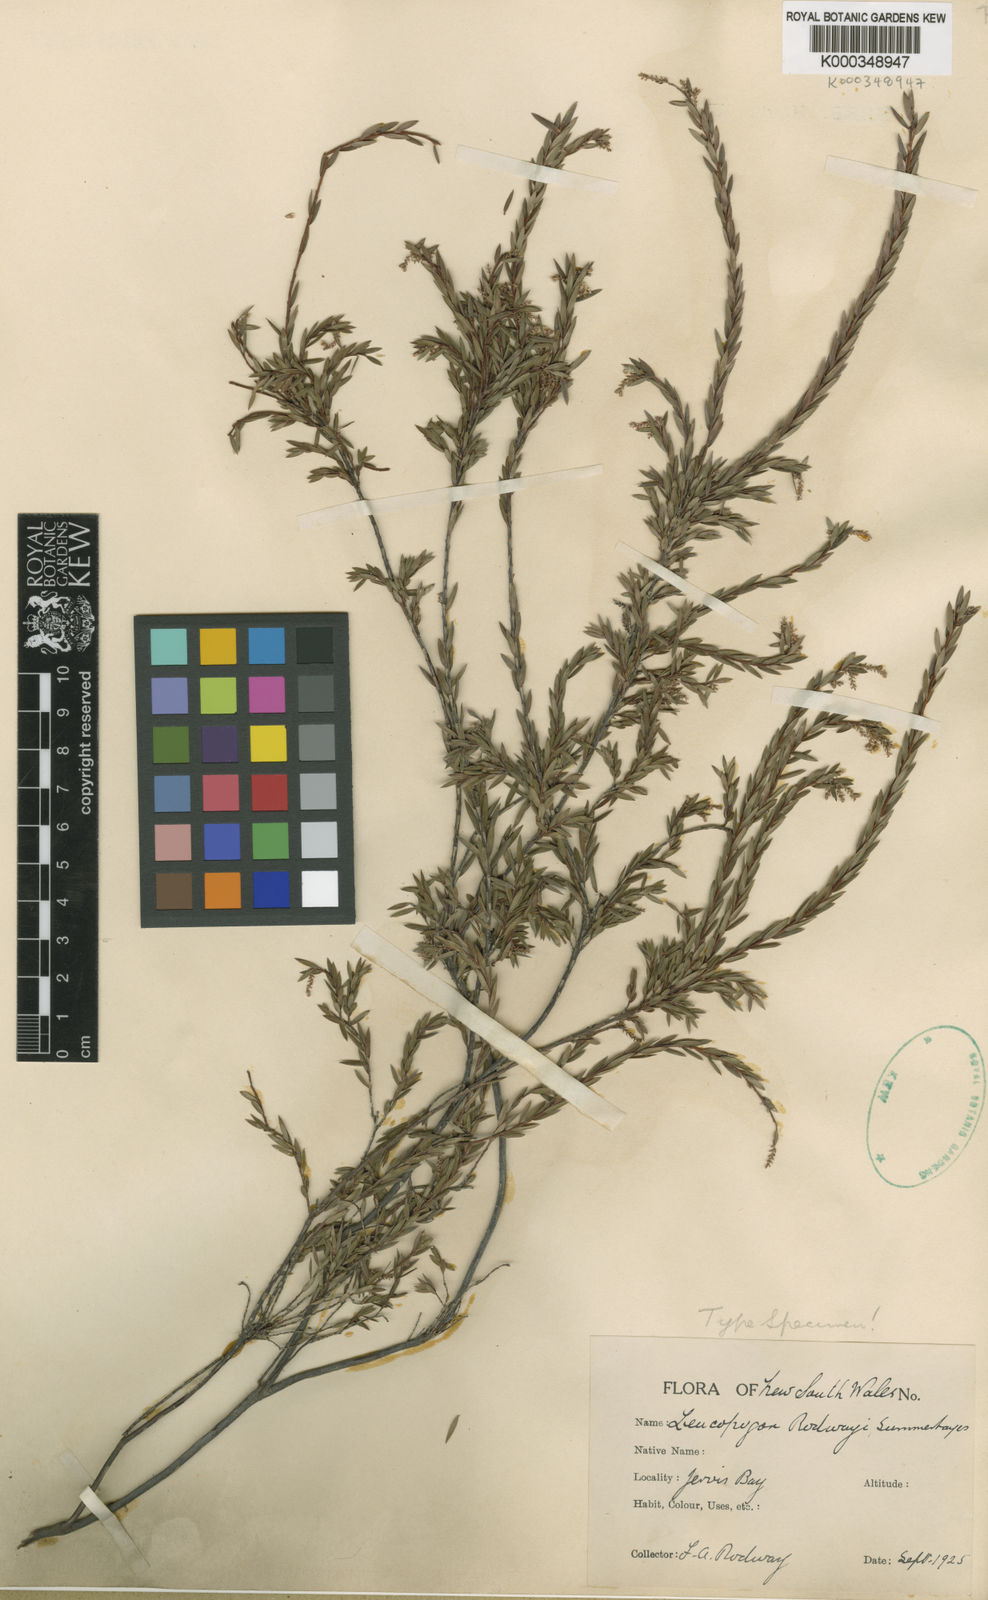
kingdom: Plantae
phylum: Tracheophyta
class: Magnoliopsida
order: Ericales
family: Ericaceae
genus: Leucopogon
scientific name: Leucopogon rodwayi
